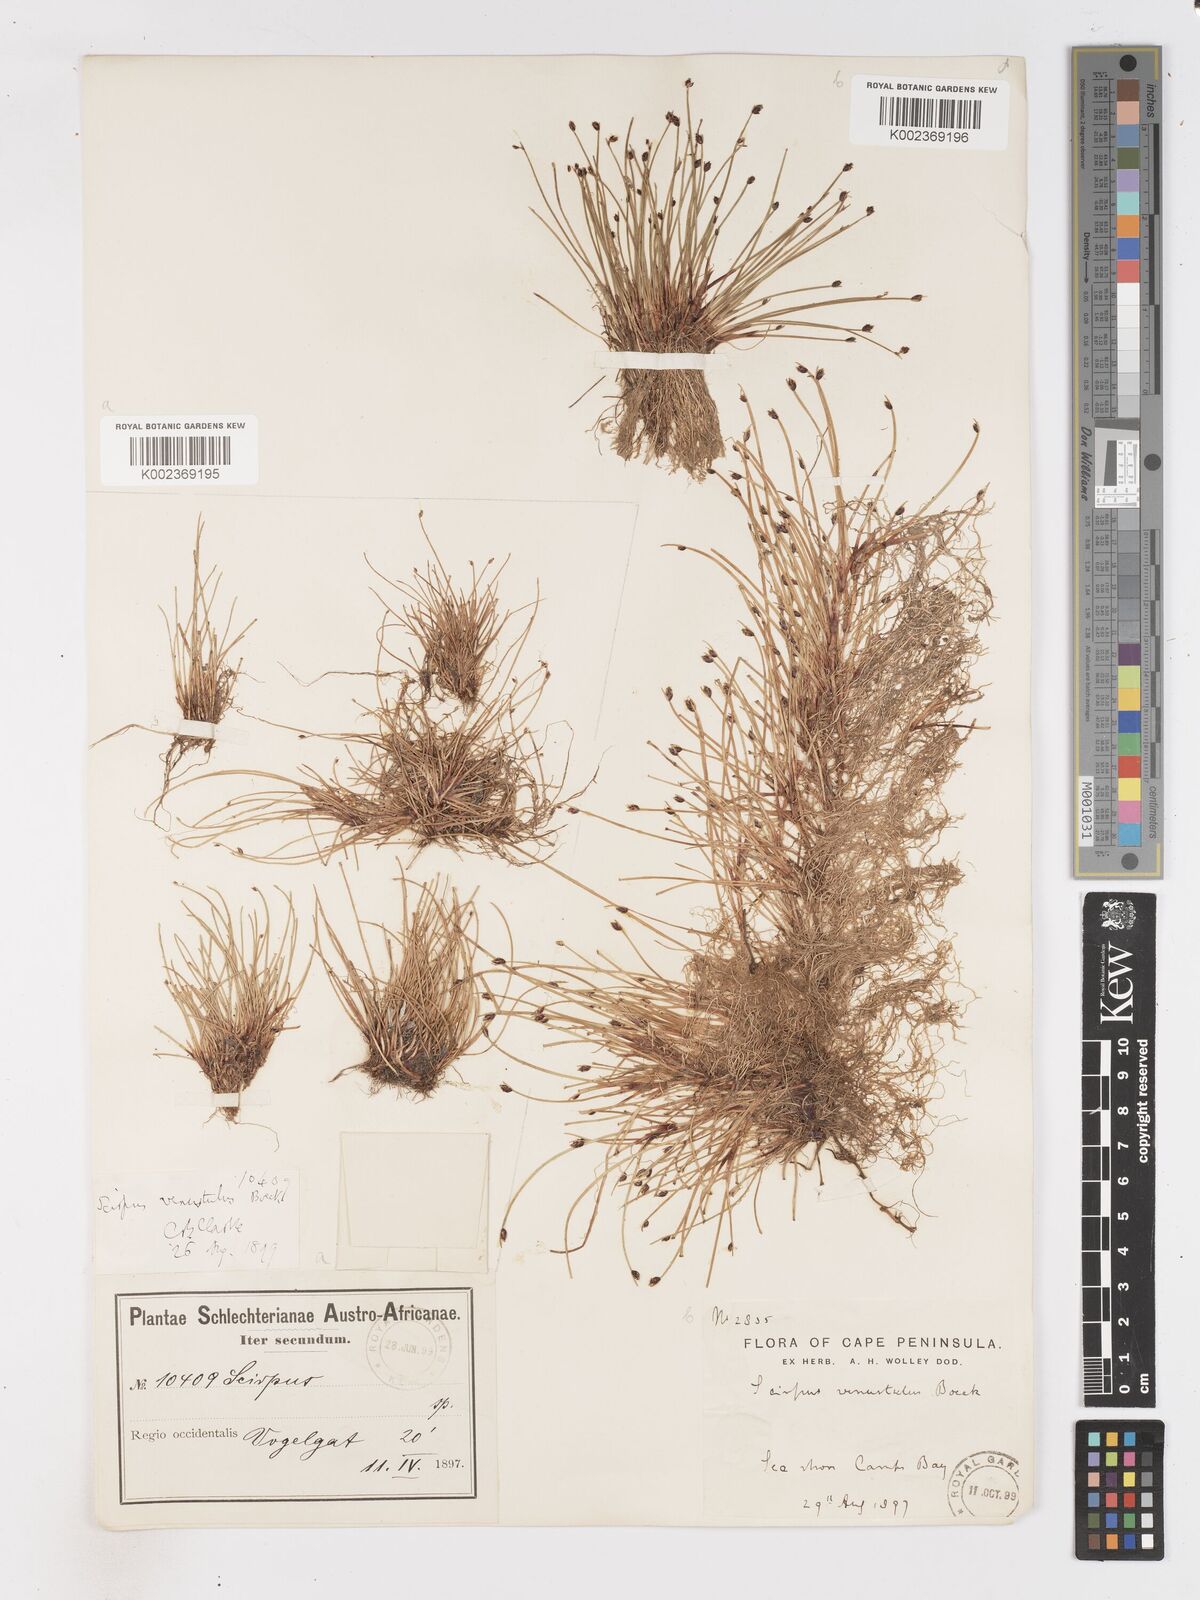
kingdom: Plantae
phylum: Tracheophyta
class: Liliopsida
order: Poales
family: Cyperaceae
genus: Isolepis
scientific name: Isolepis venustula
